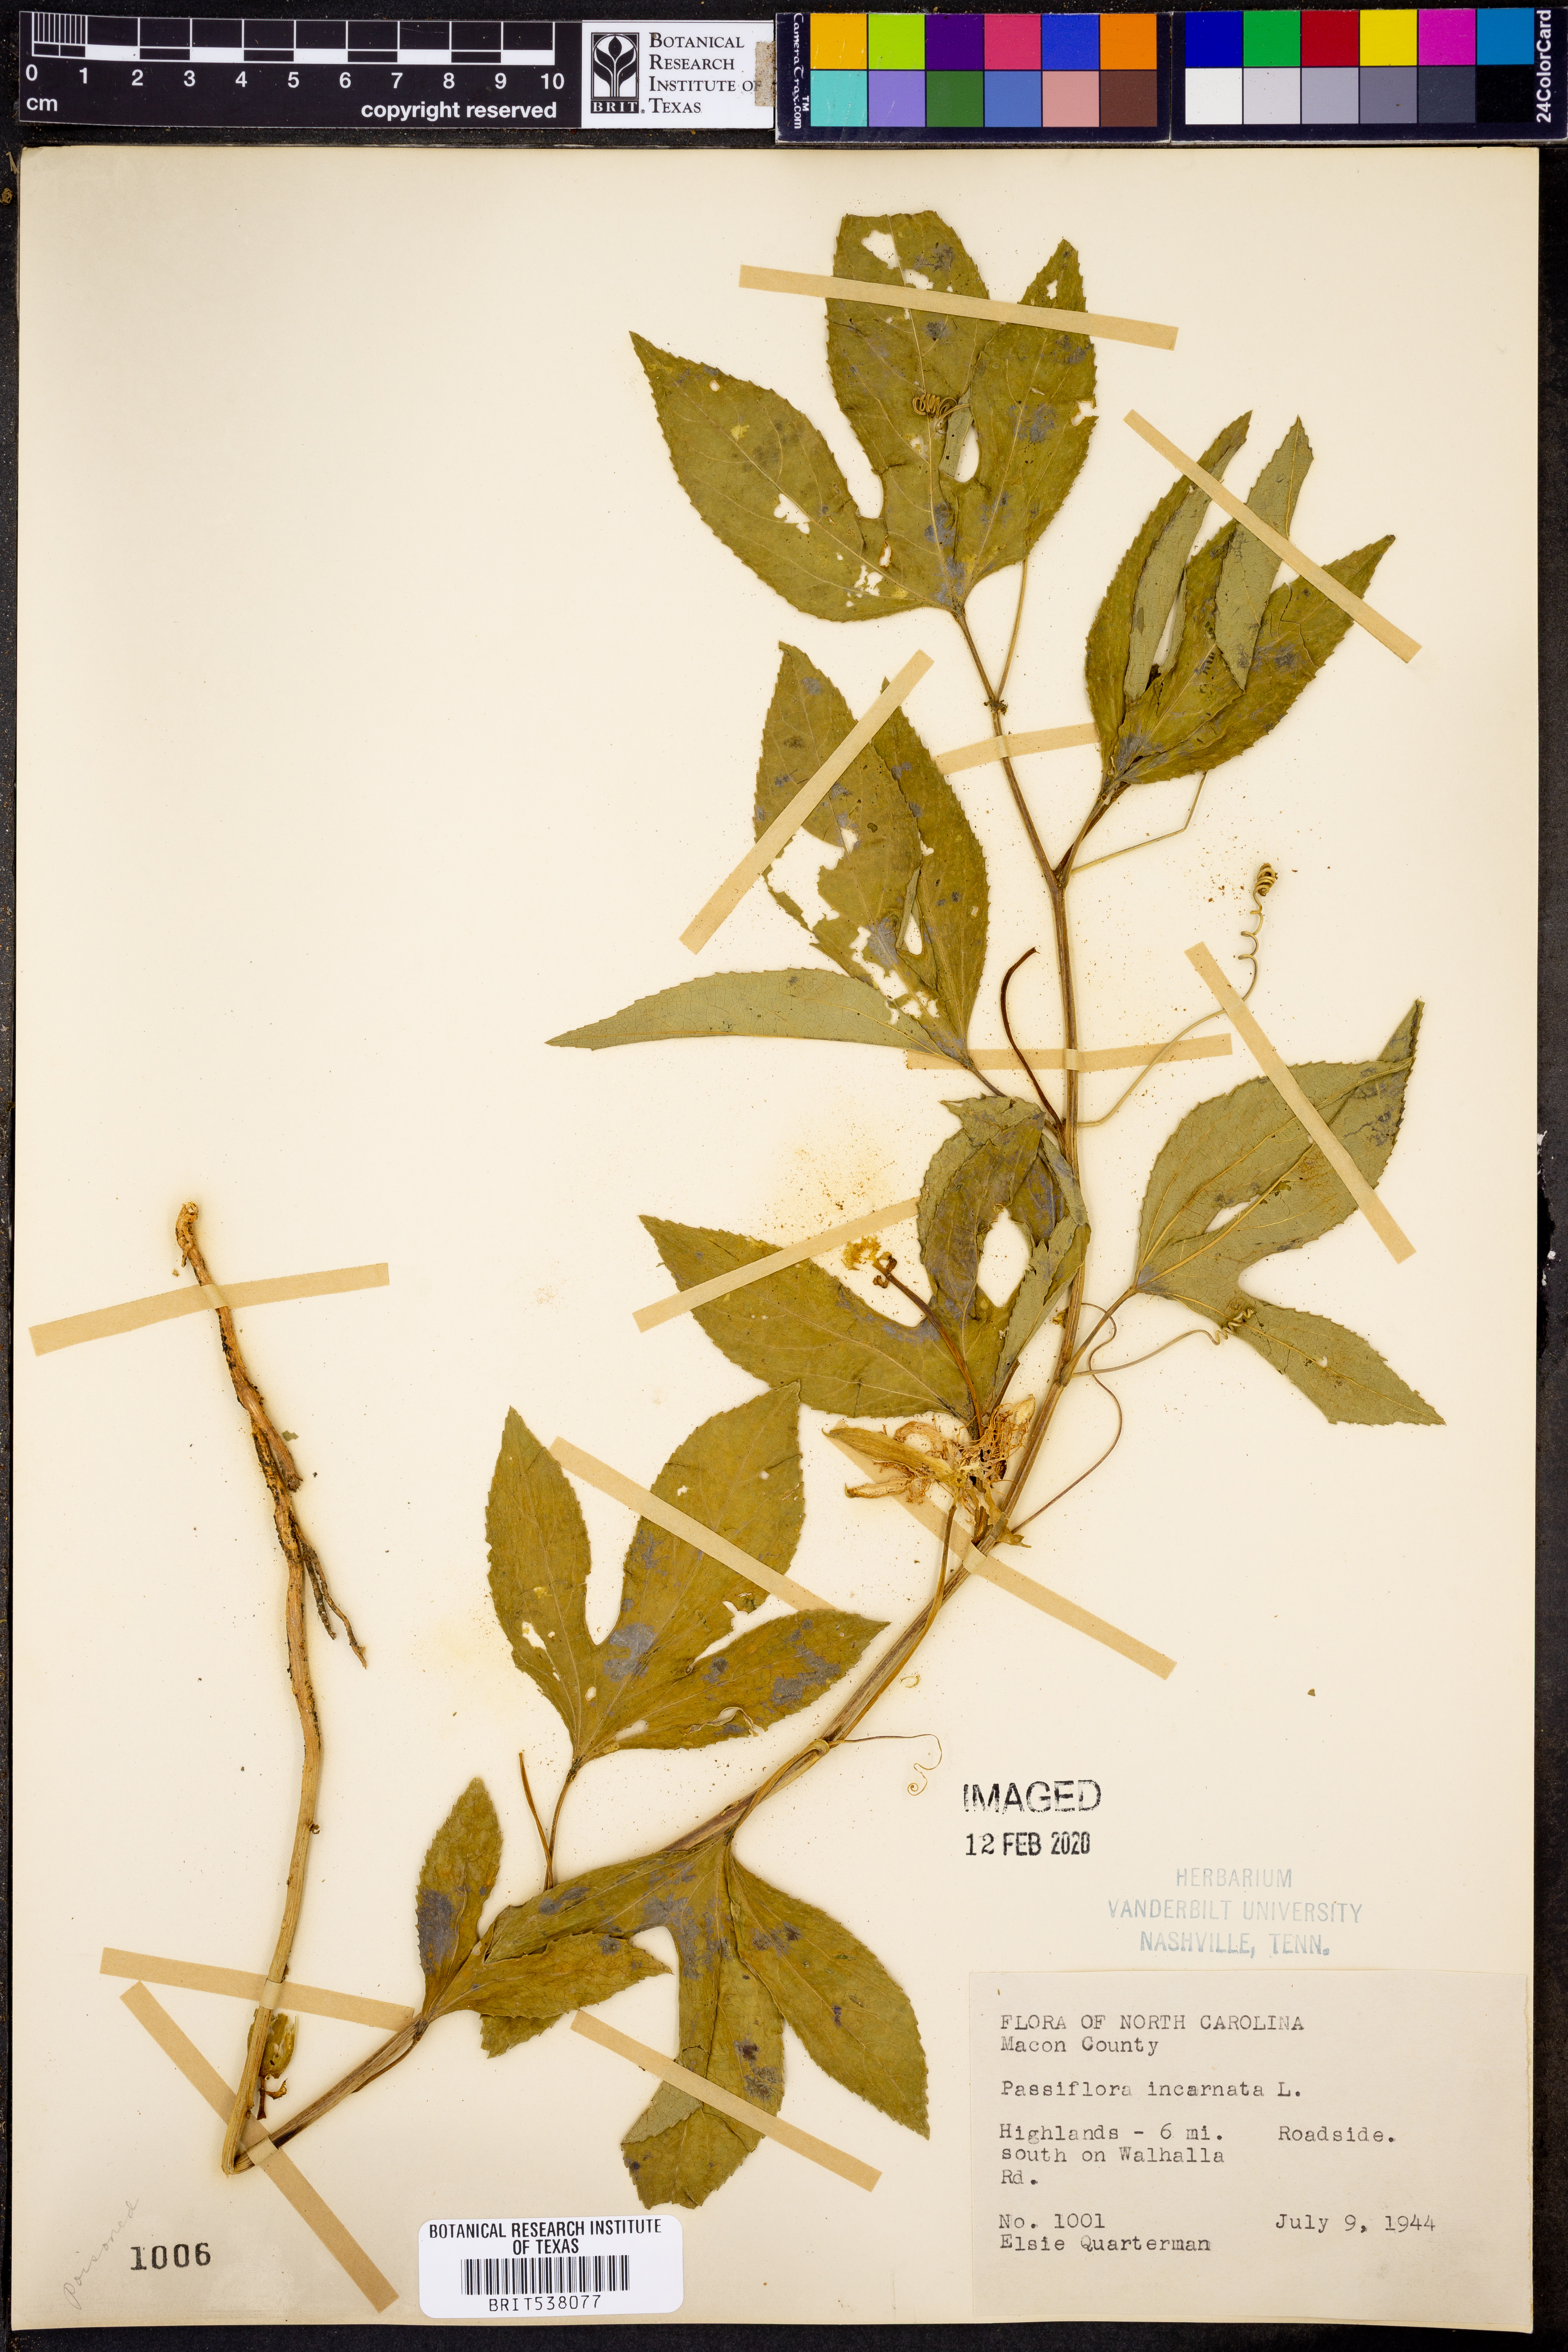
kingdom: Plantae
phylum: Tracheophyta
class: Magnoliopsida
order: Malpighiales
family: Passifloraceae
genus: Passiflora
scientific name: Passiflora incarnata
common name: Apricot-vine
